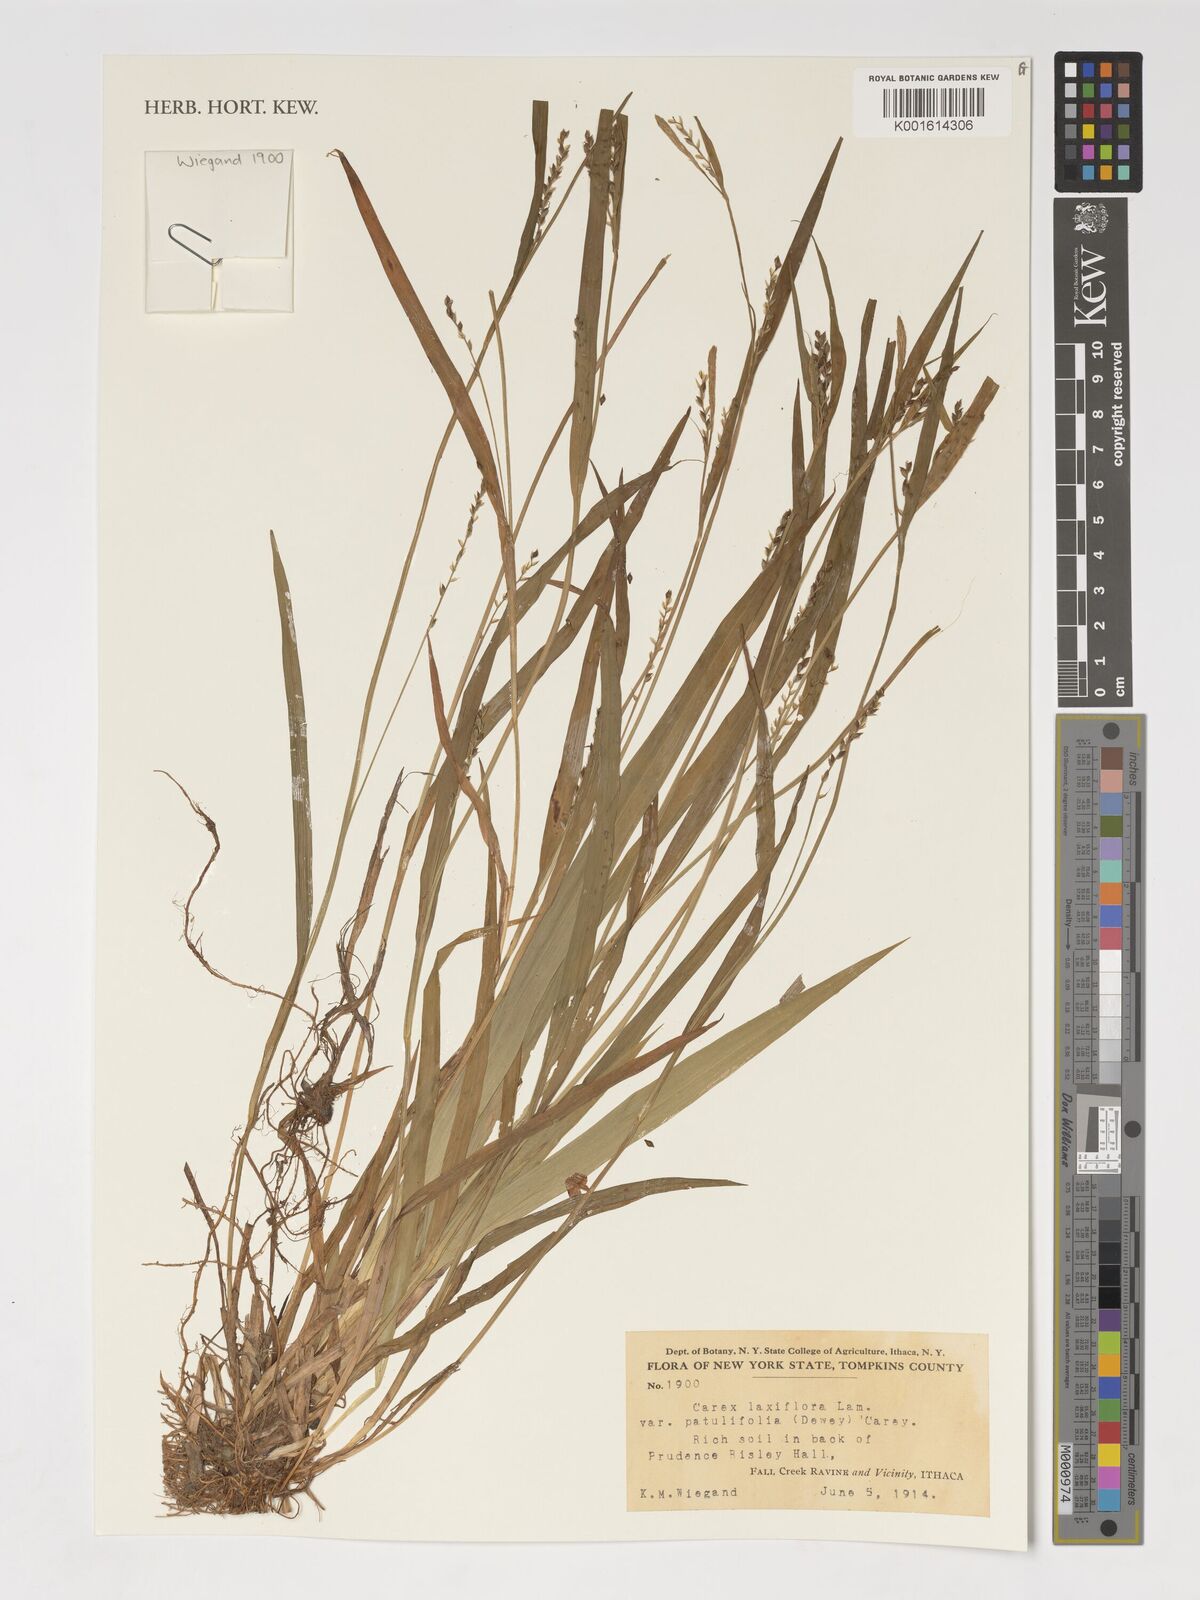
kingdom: Plantae
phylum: Tracheophyta
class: Liliopsida
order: Poales
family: Cyperaceae
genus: Carex
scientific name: Carex laxiflora
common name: Beech wood sedge
